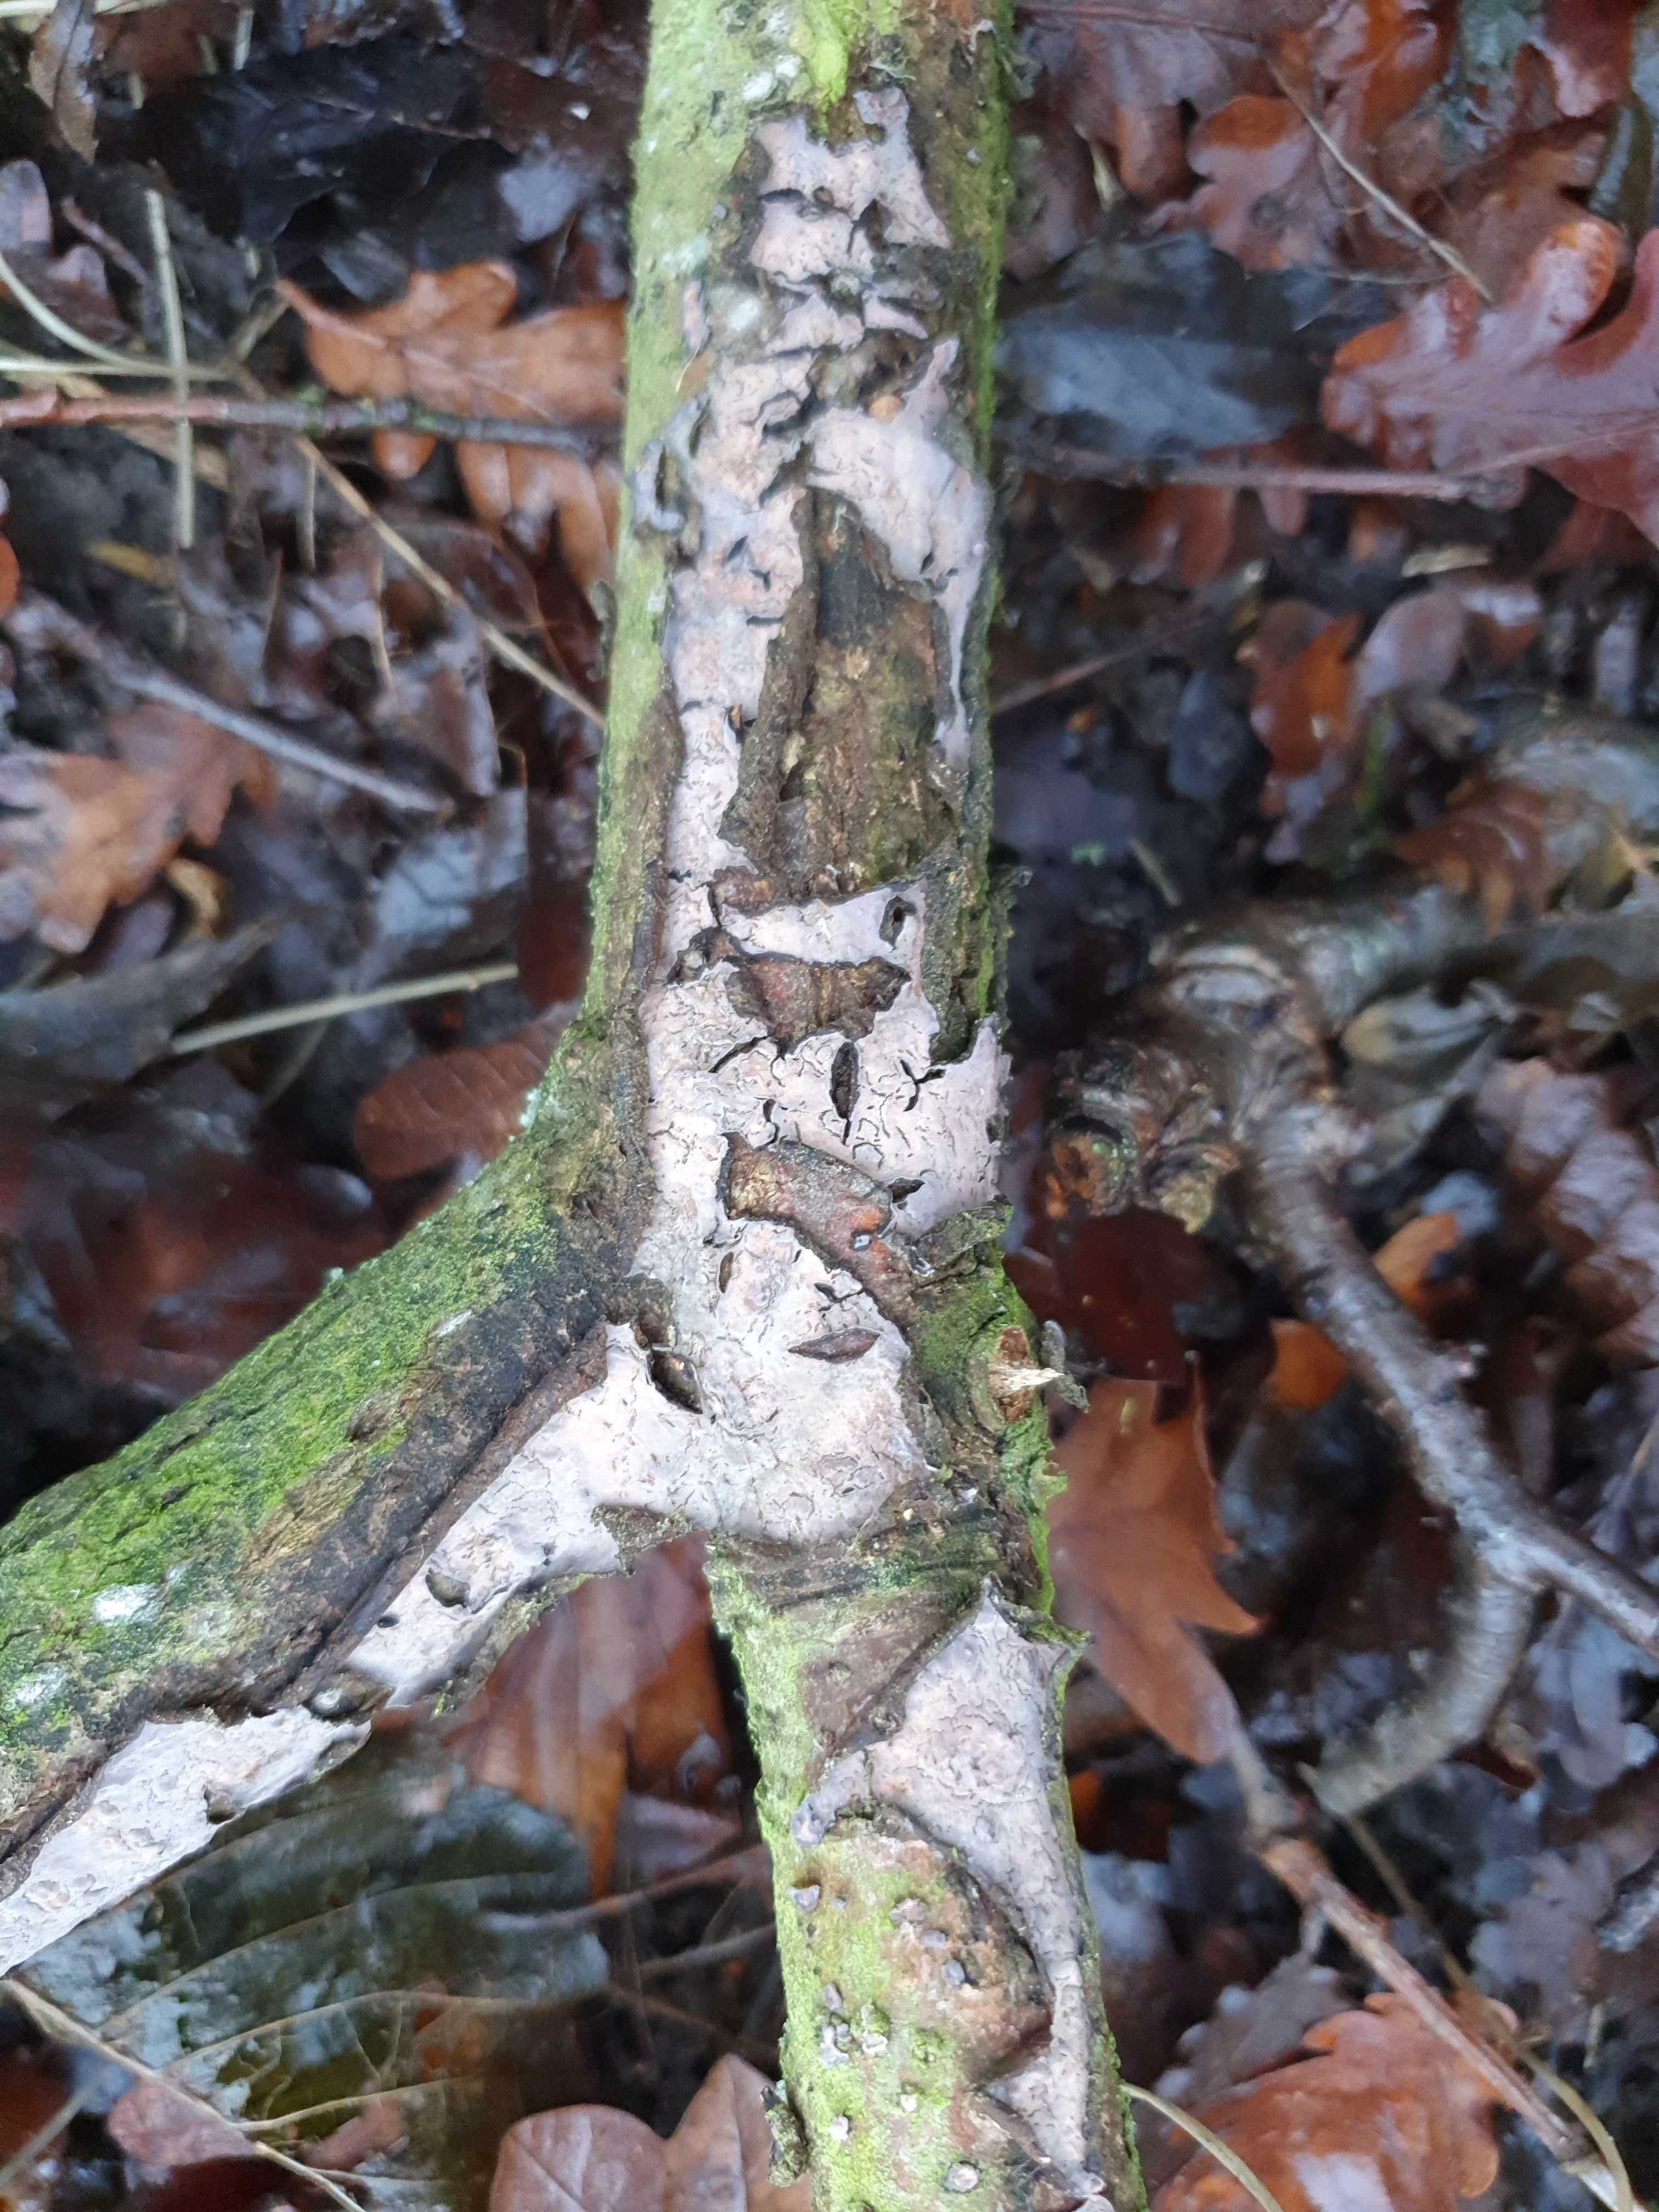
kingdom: Fungi
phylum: Basidiomycota
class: Agaricomycetes
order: Russulales
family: Peniophoraceae
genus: Peniophora
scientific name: Peniophora quercina
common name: ege-voksskind
